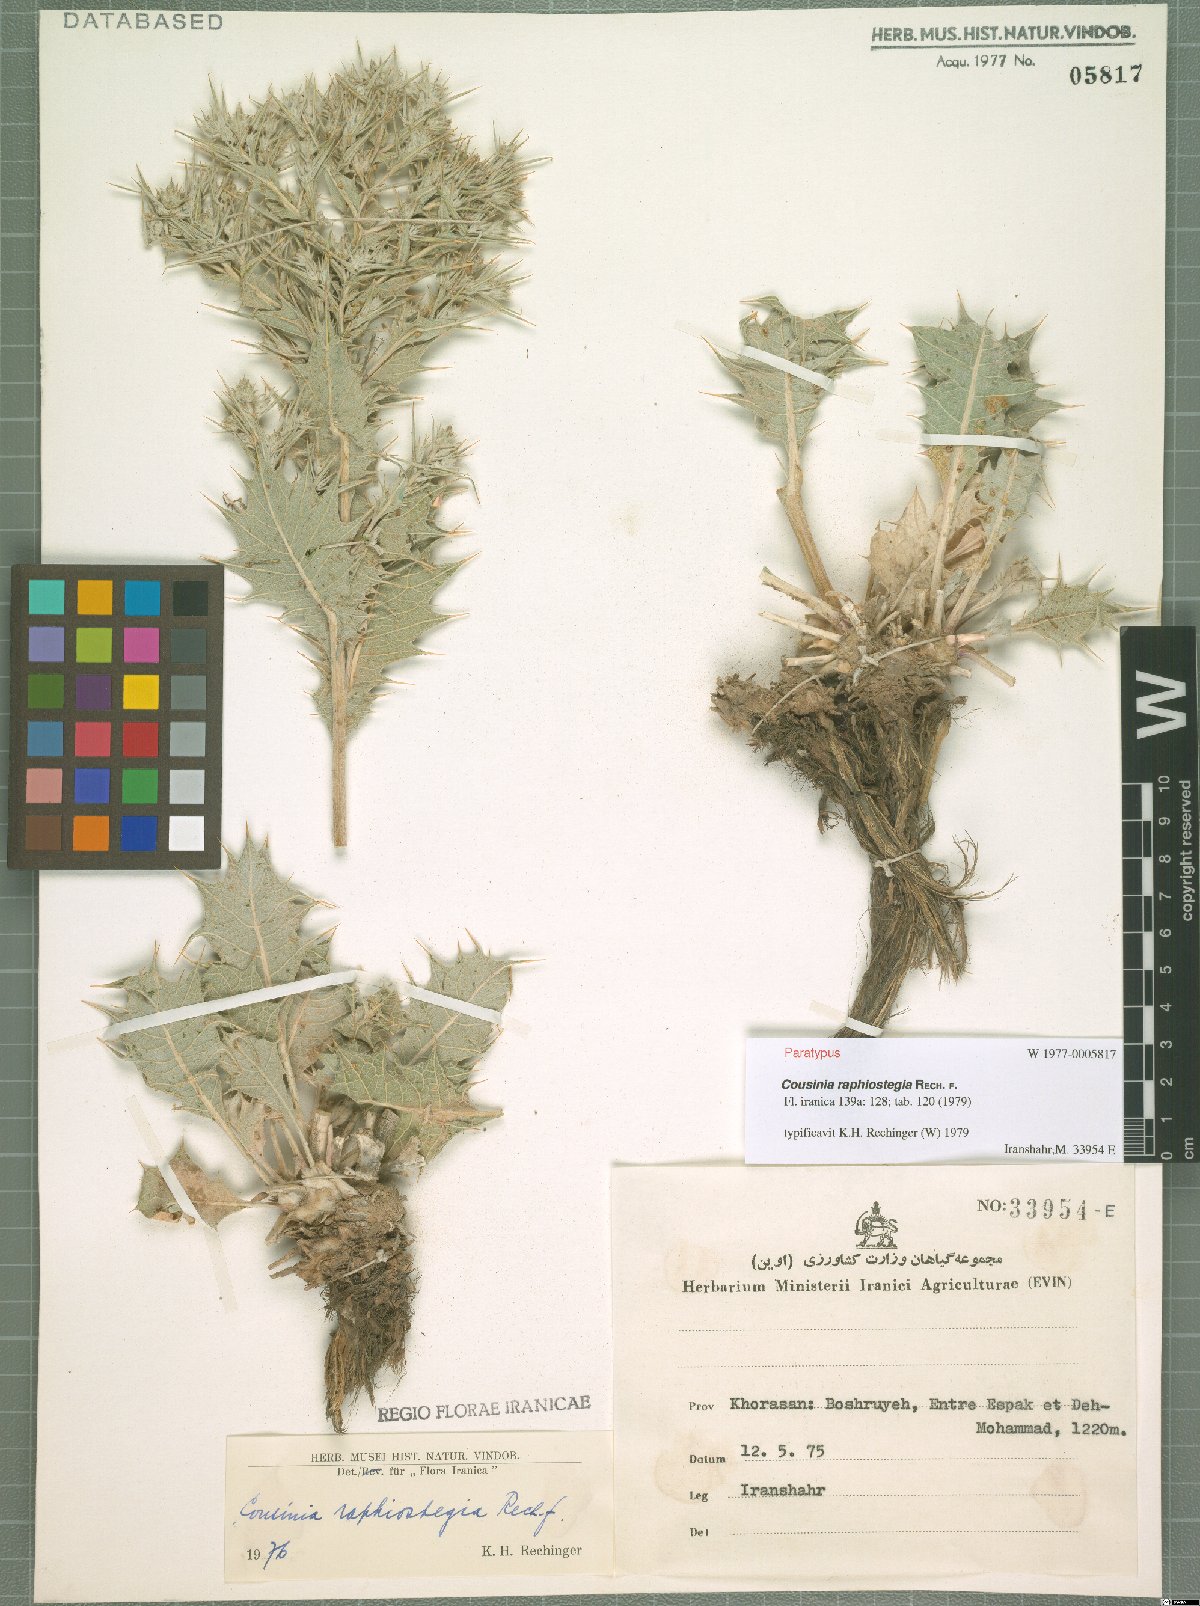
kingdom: Plantae
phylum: Tracheophyta
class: Magnoliopsida
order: Asterales
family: Asteraceae
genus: Cousinia
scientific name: Cousinia raphiostegia
